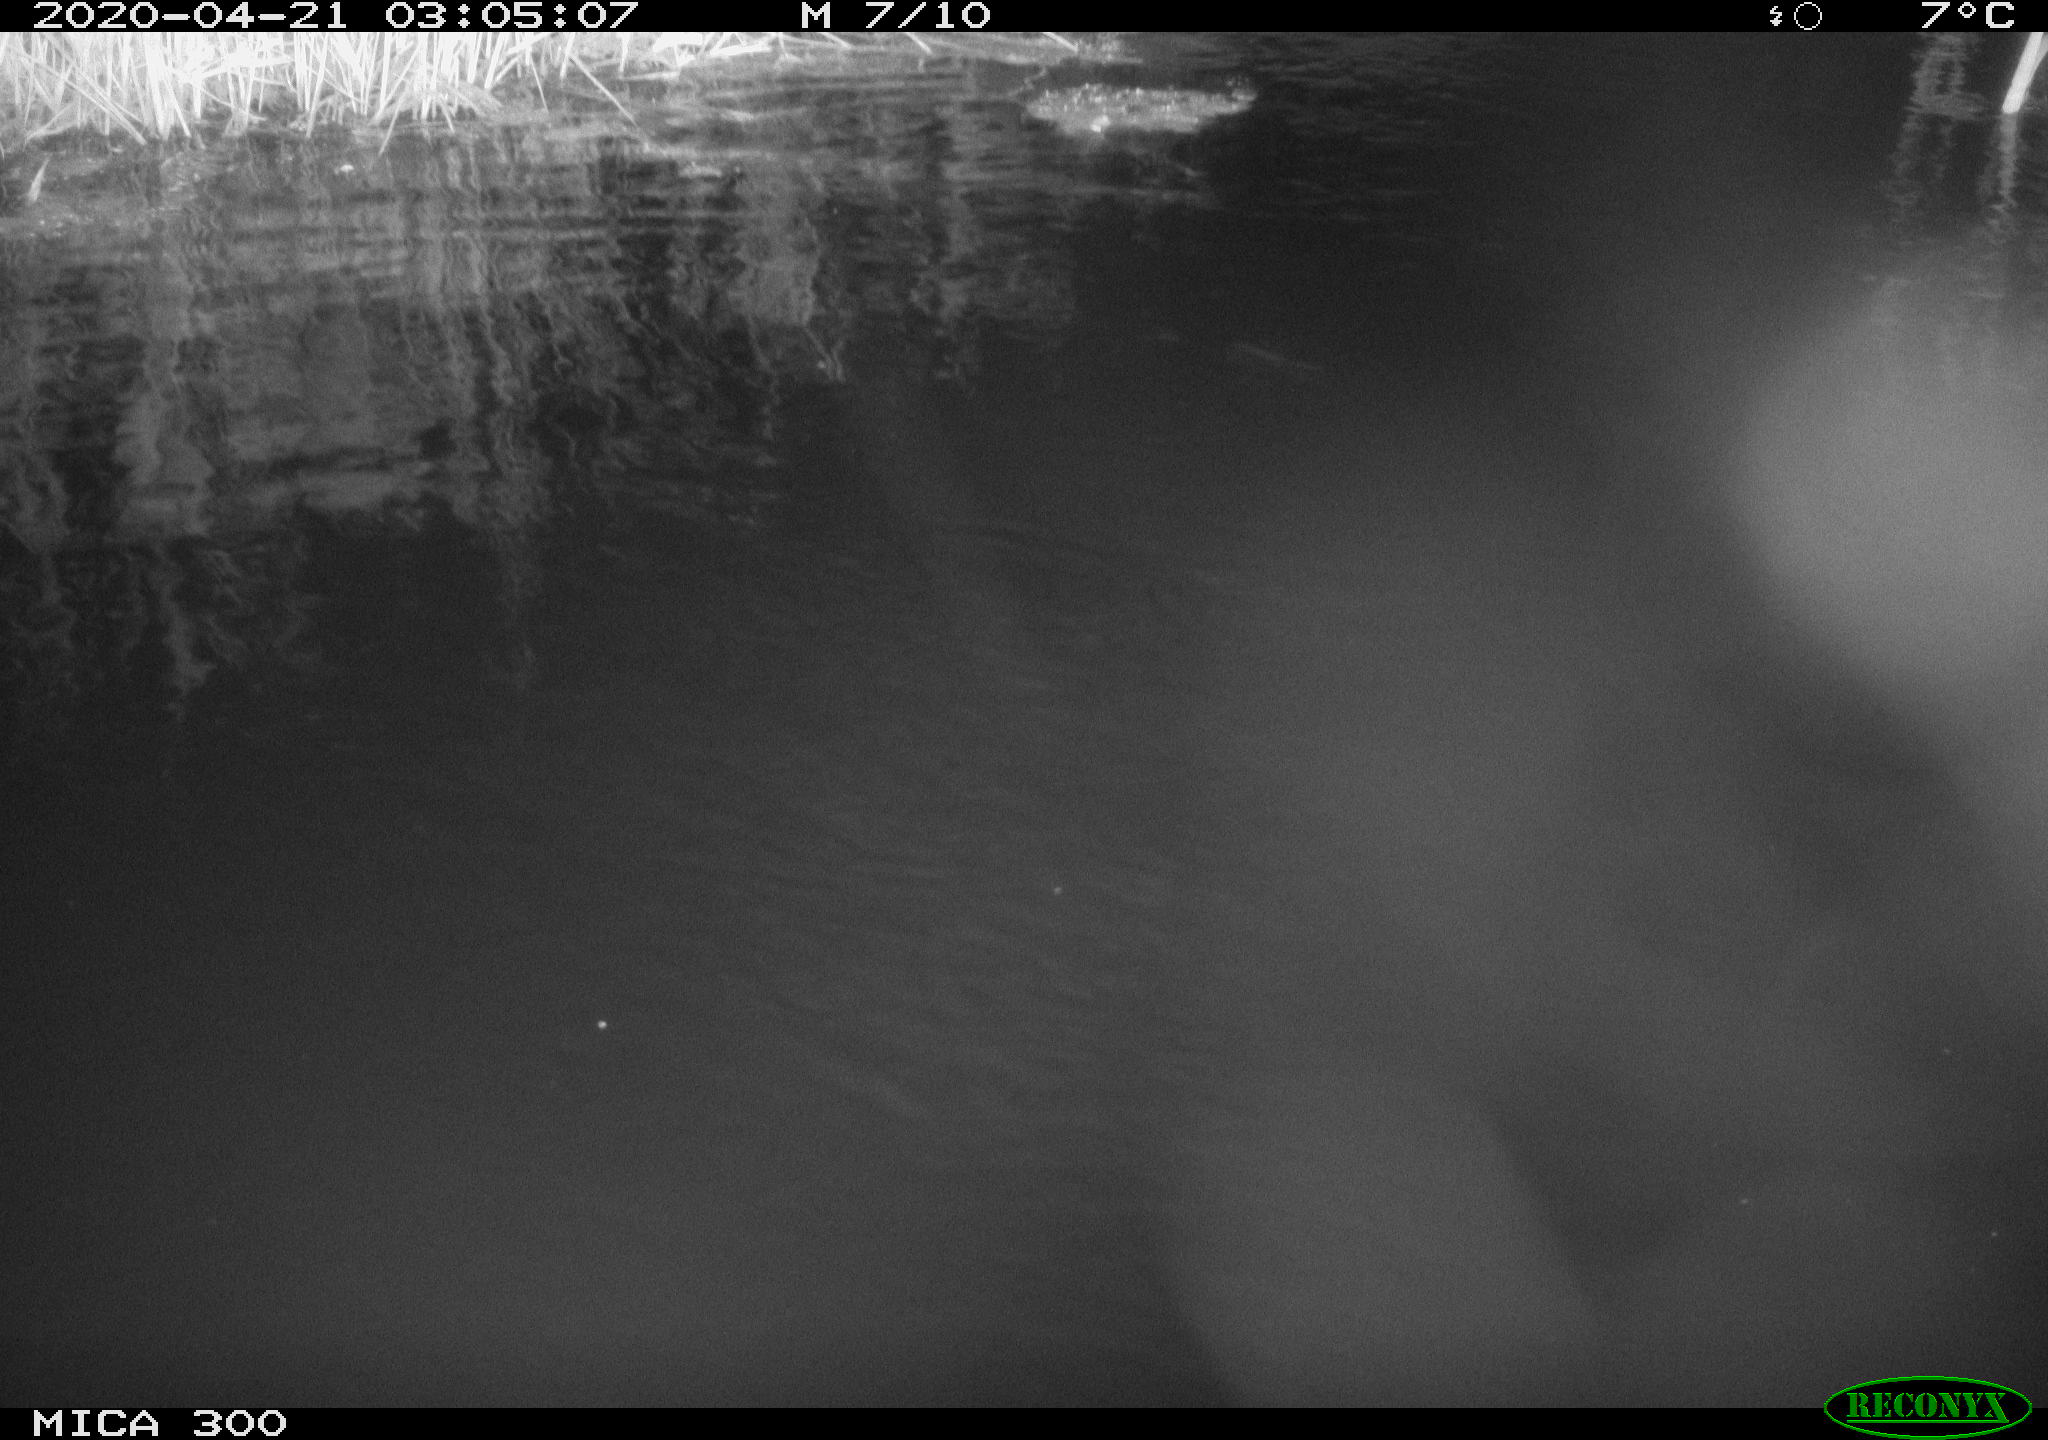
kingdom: Animalia
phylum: Chordata
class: Mammalia
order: Rodentia
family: Castoridae
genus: Castor
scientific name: Castor fiber
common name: Eurasian beaver
